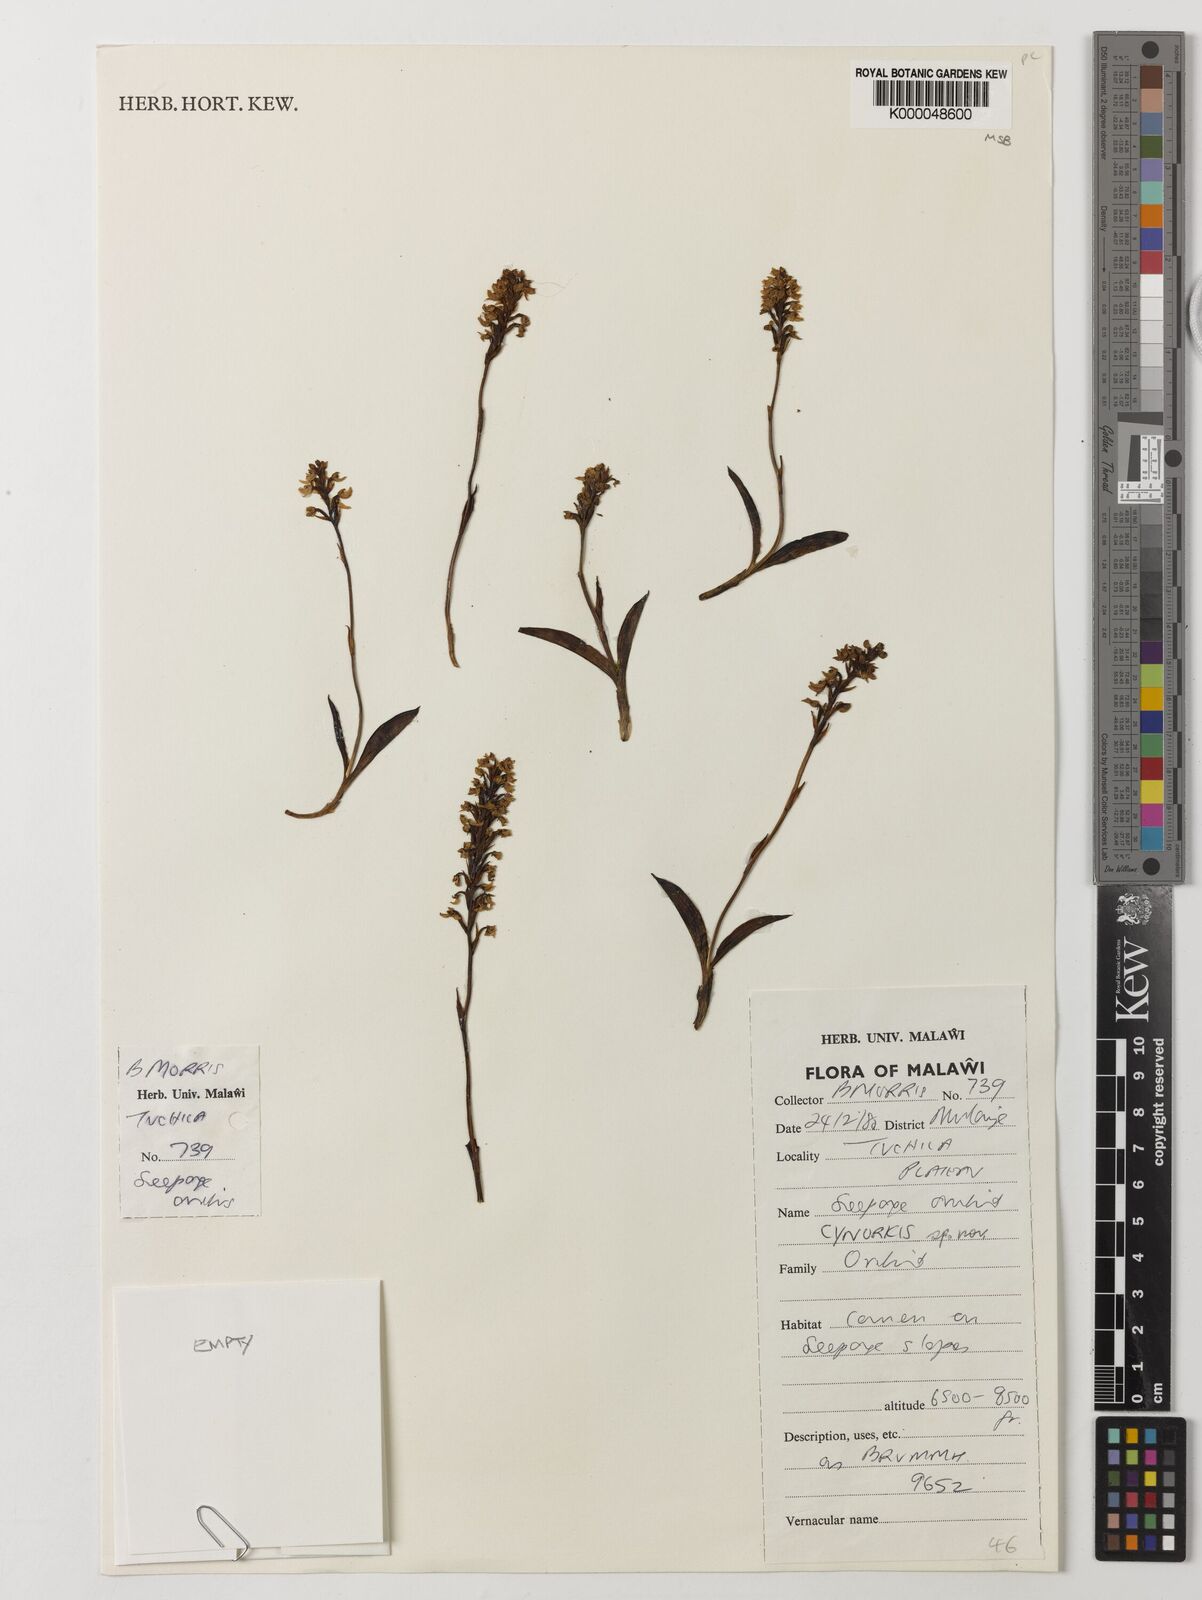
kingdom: Plantae
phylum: Tracheophyta
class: Liliopsida
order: Asparagales
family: Orchidaceae
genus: Cynorkis
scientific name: Cynorkis brevicalcar
